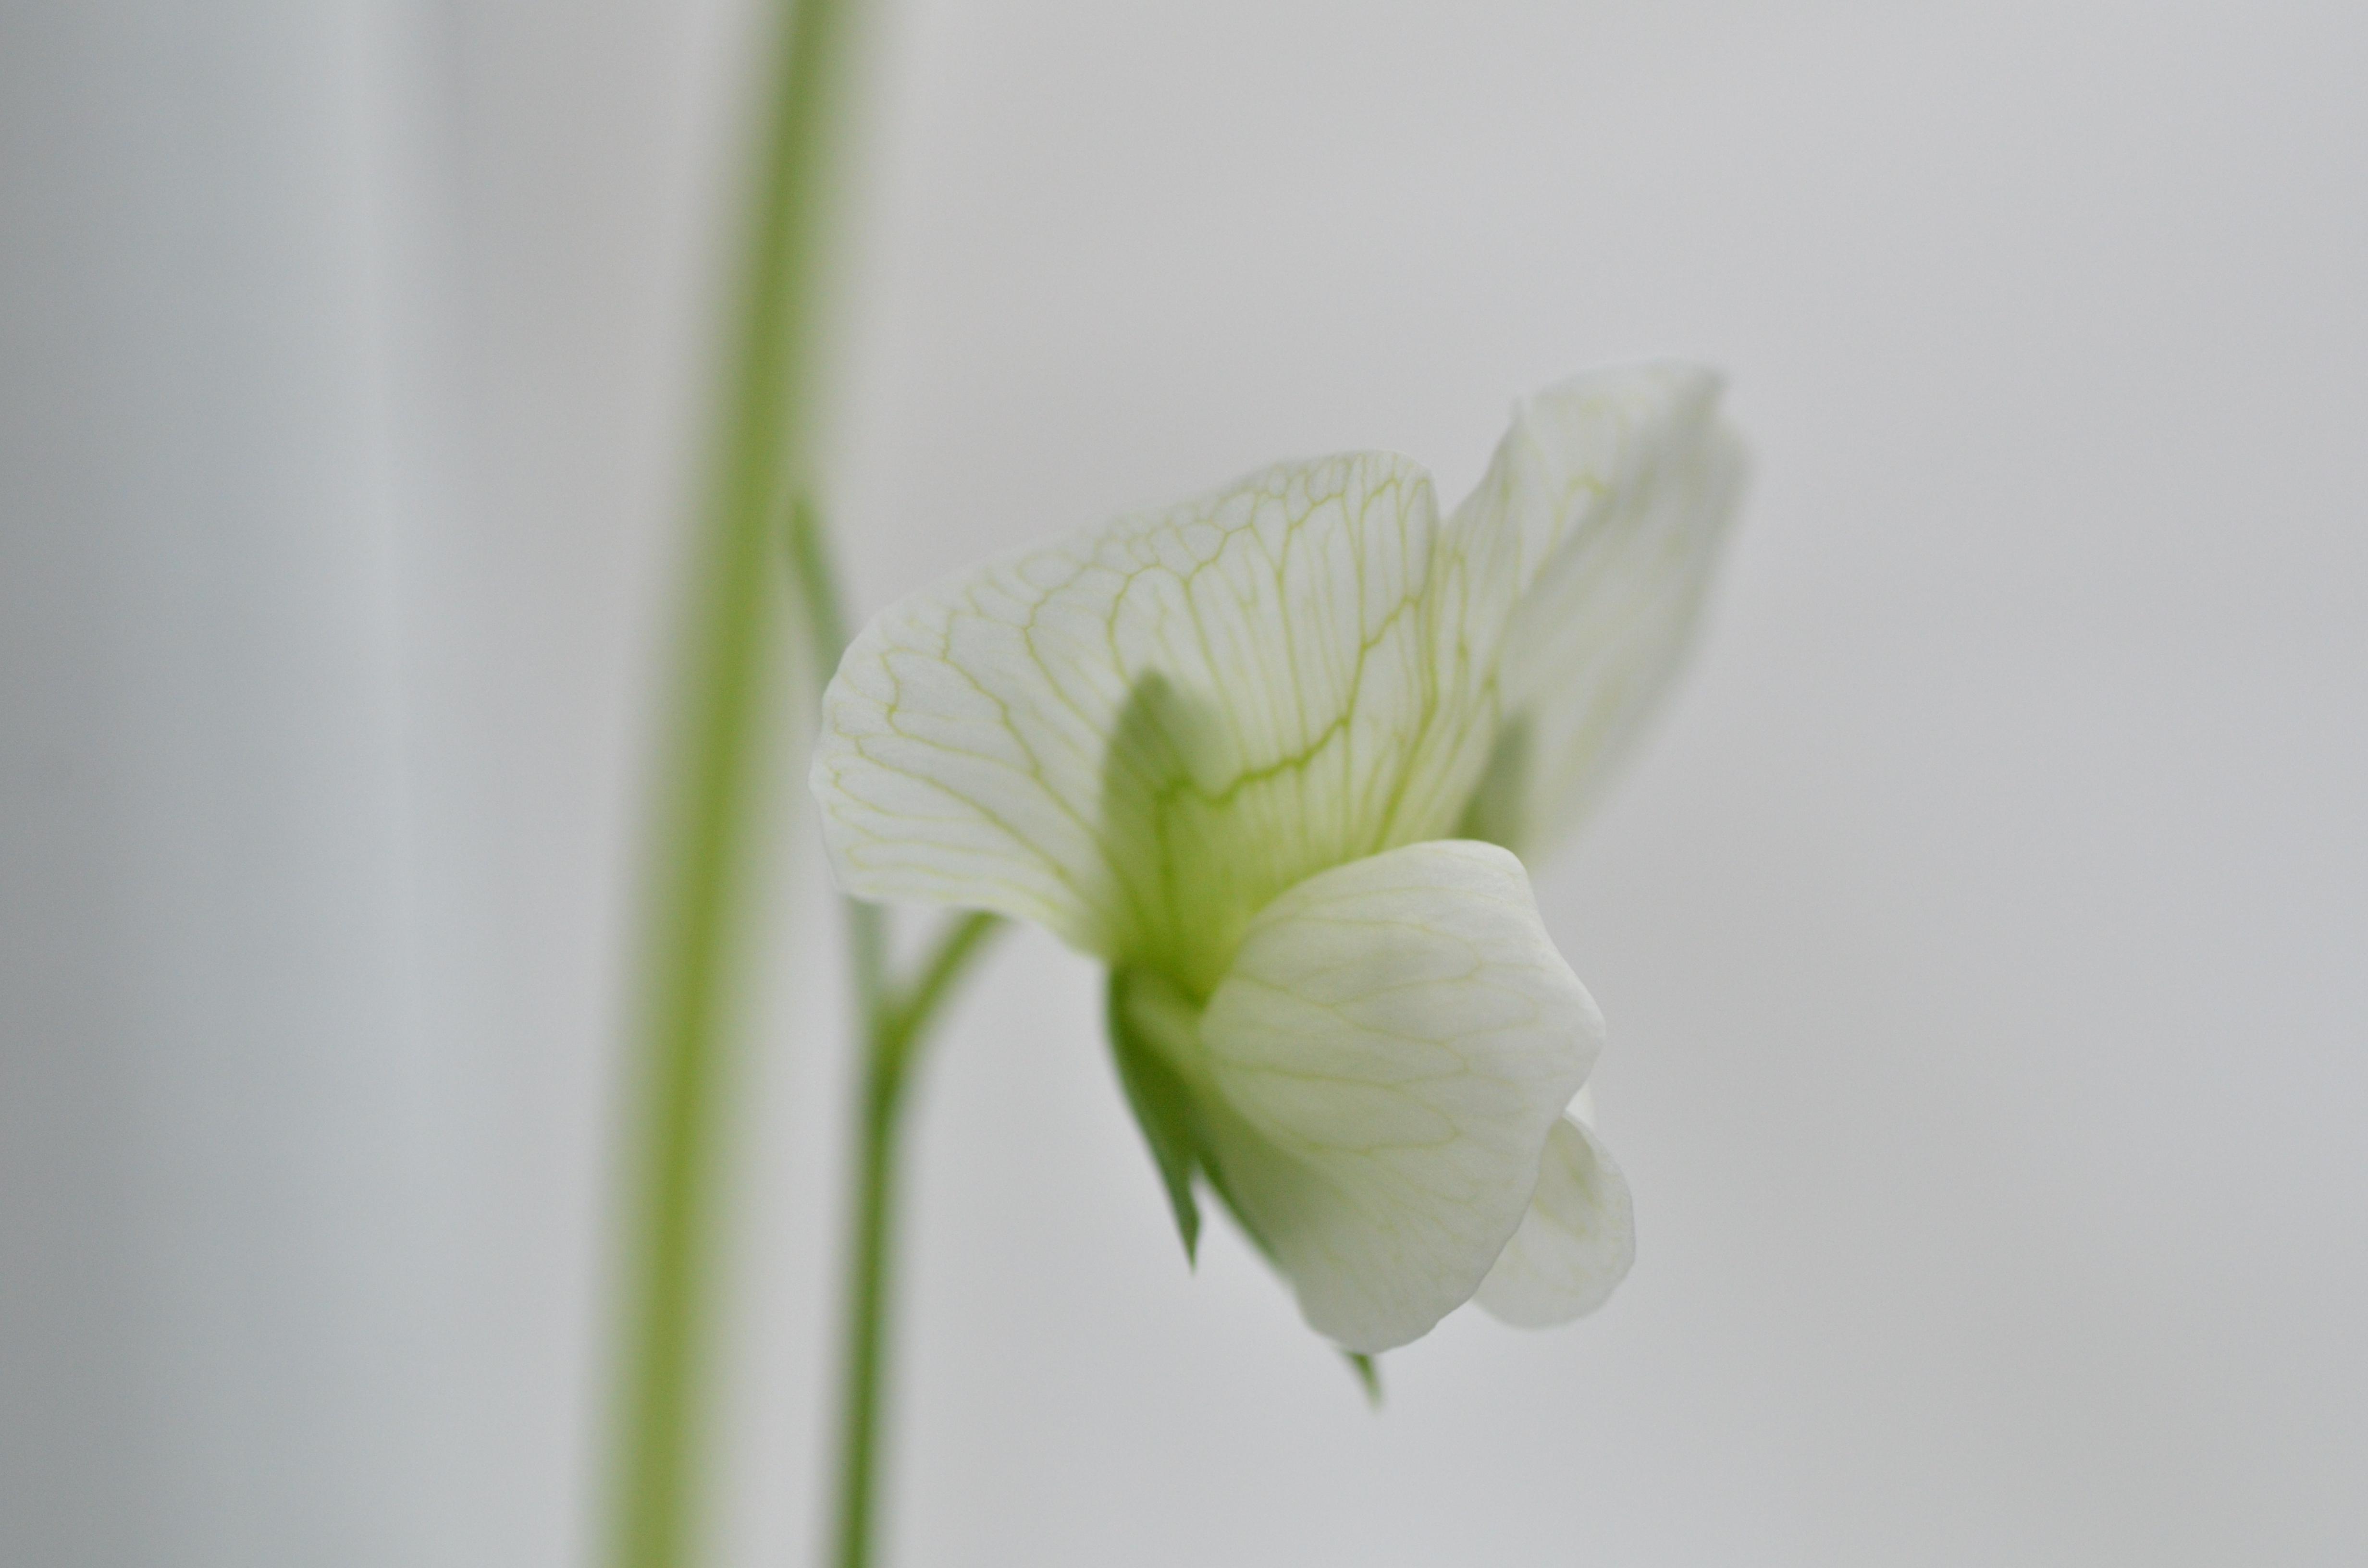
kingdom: Plantae
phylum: Tracheophyta
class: Magnoliopsida
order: Fabales
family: Fabaceae
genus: Lathyrus
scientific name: Lathyrus oleraceus
